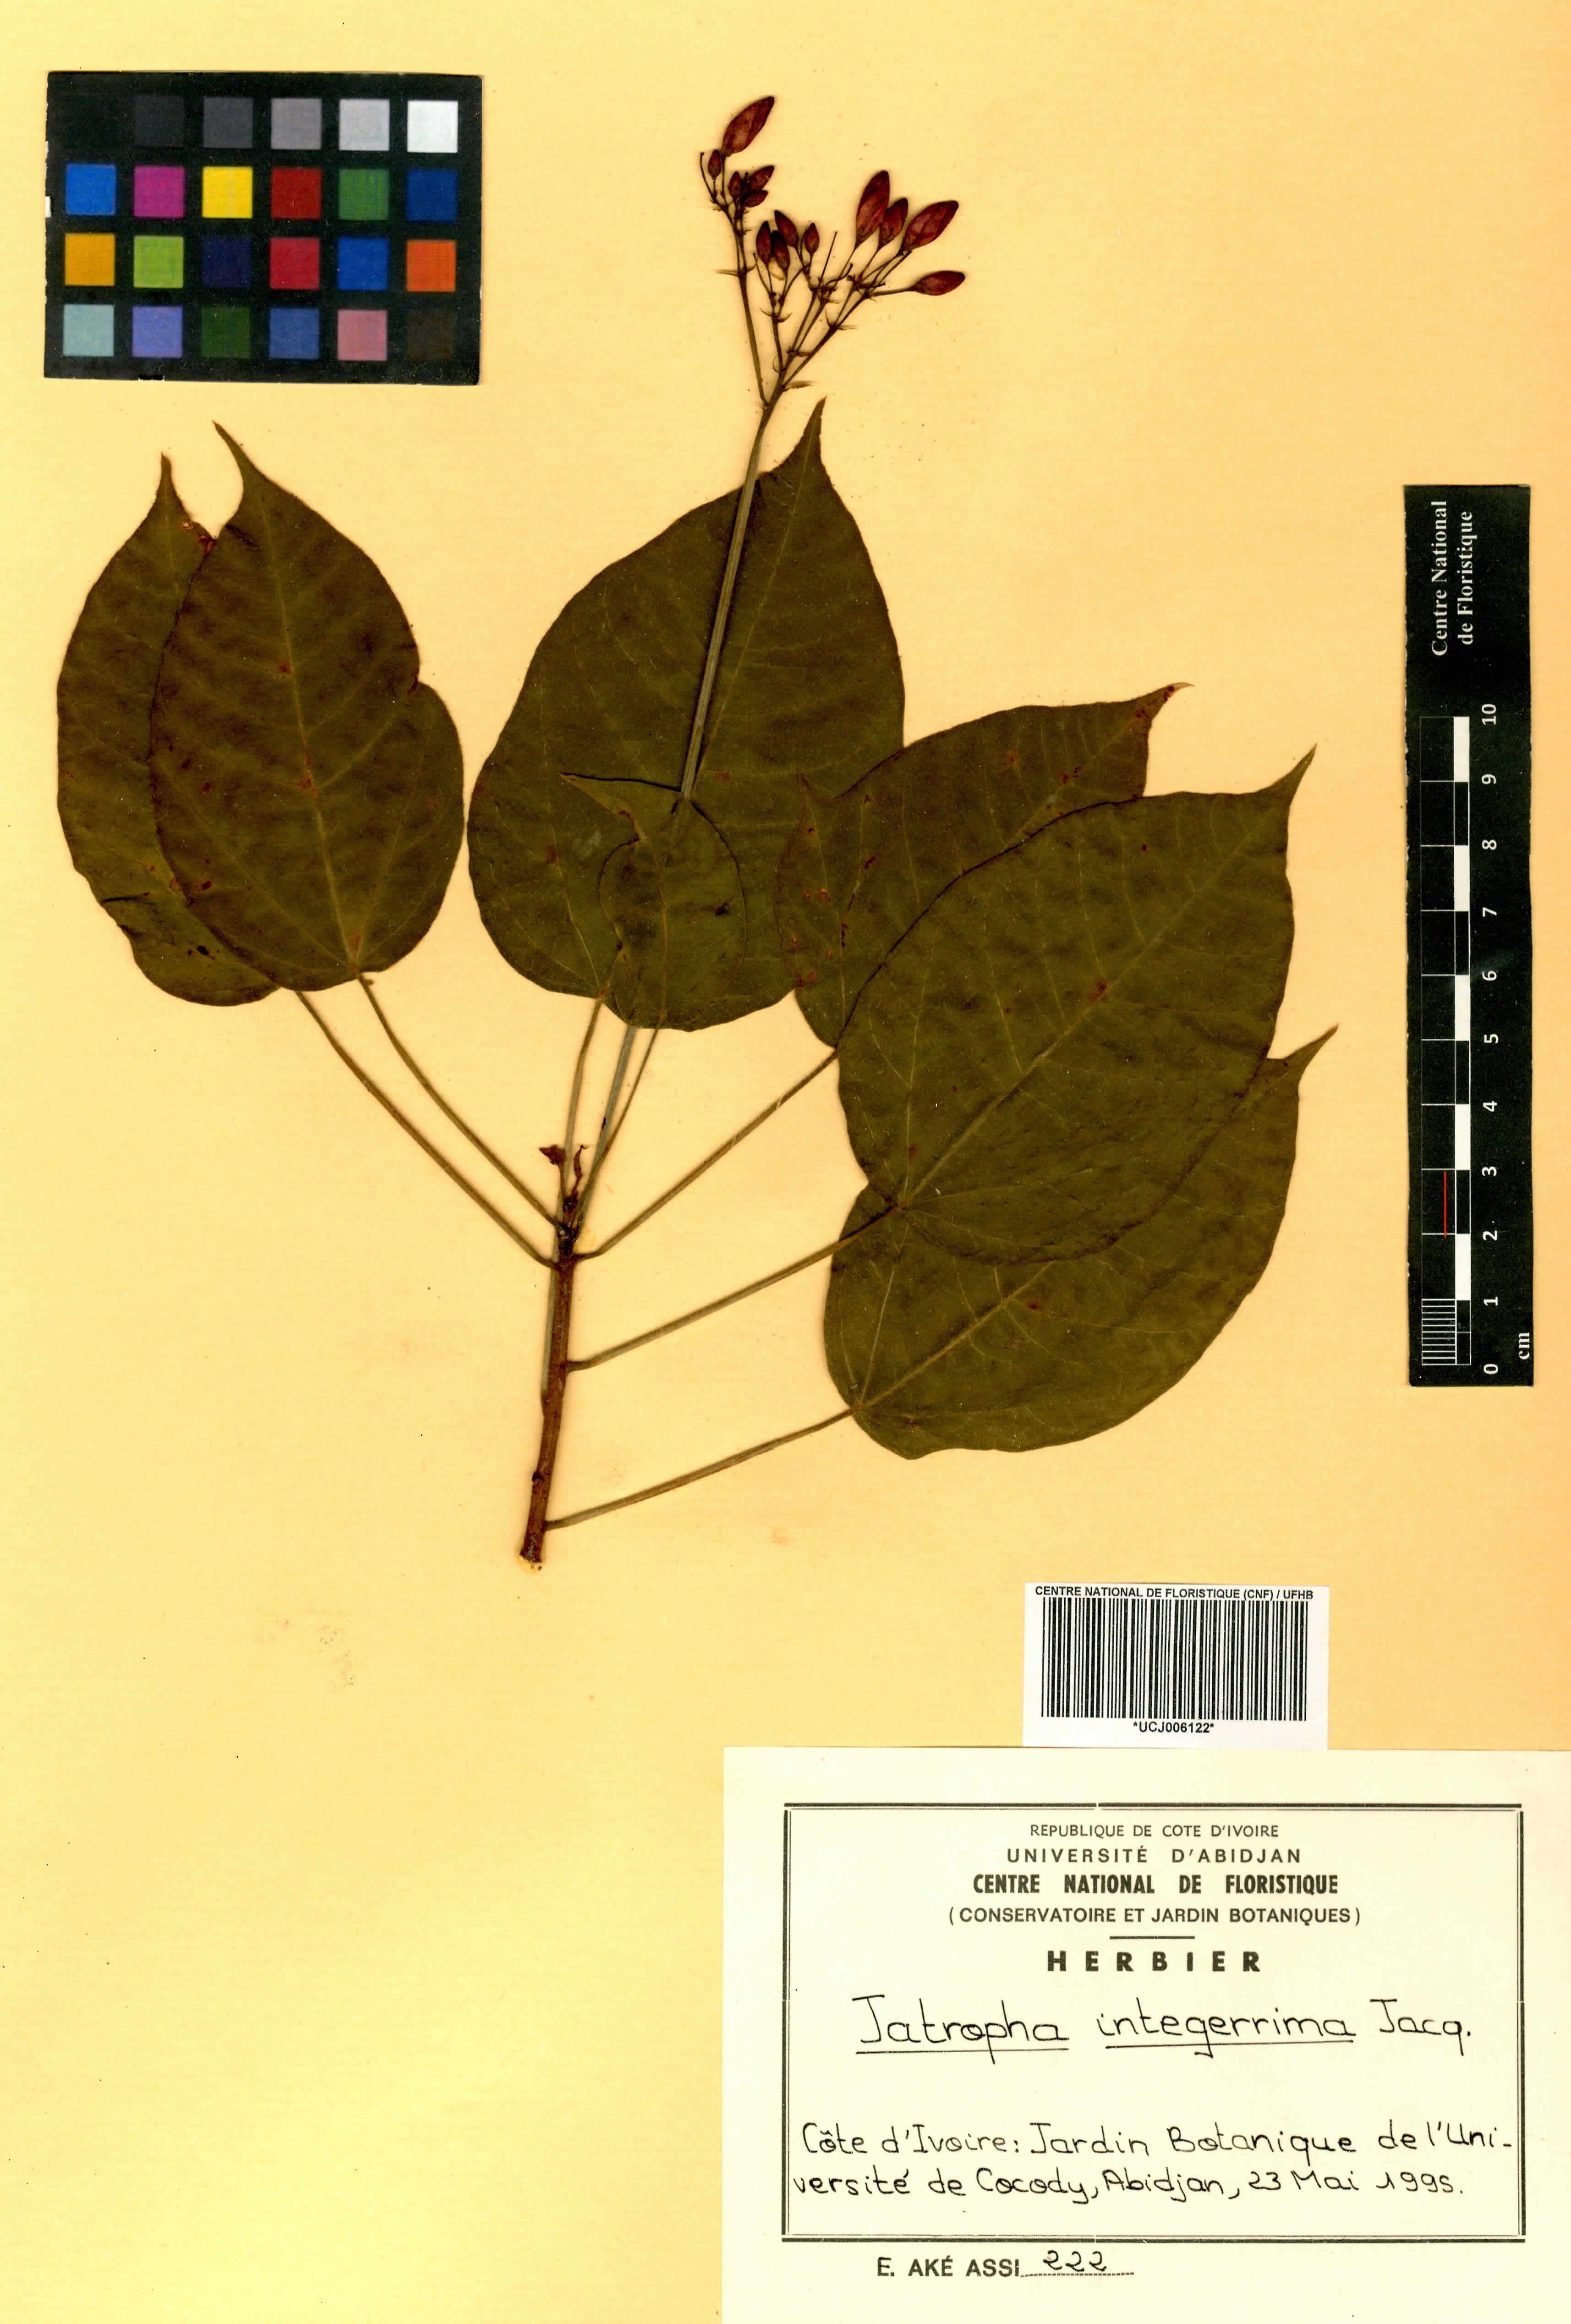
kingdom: Plantae
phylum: Tracheophyta
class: Magnoliopsida
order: Malpighiales
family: Euphorbiaceae
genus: Jatropha
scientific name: Jatropha integerrima
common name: Peregrina
